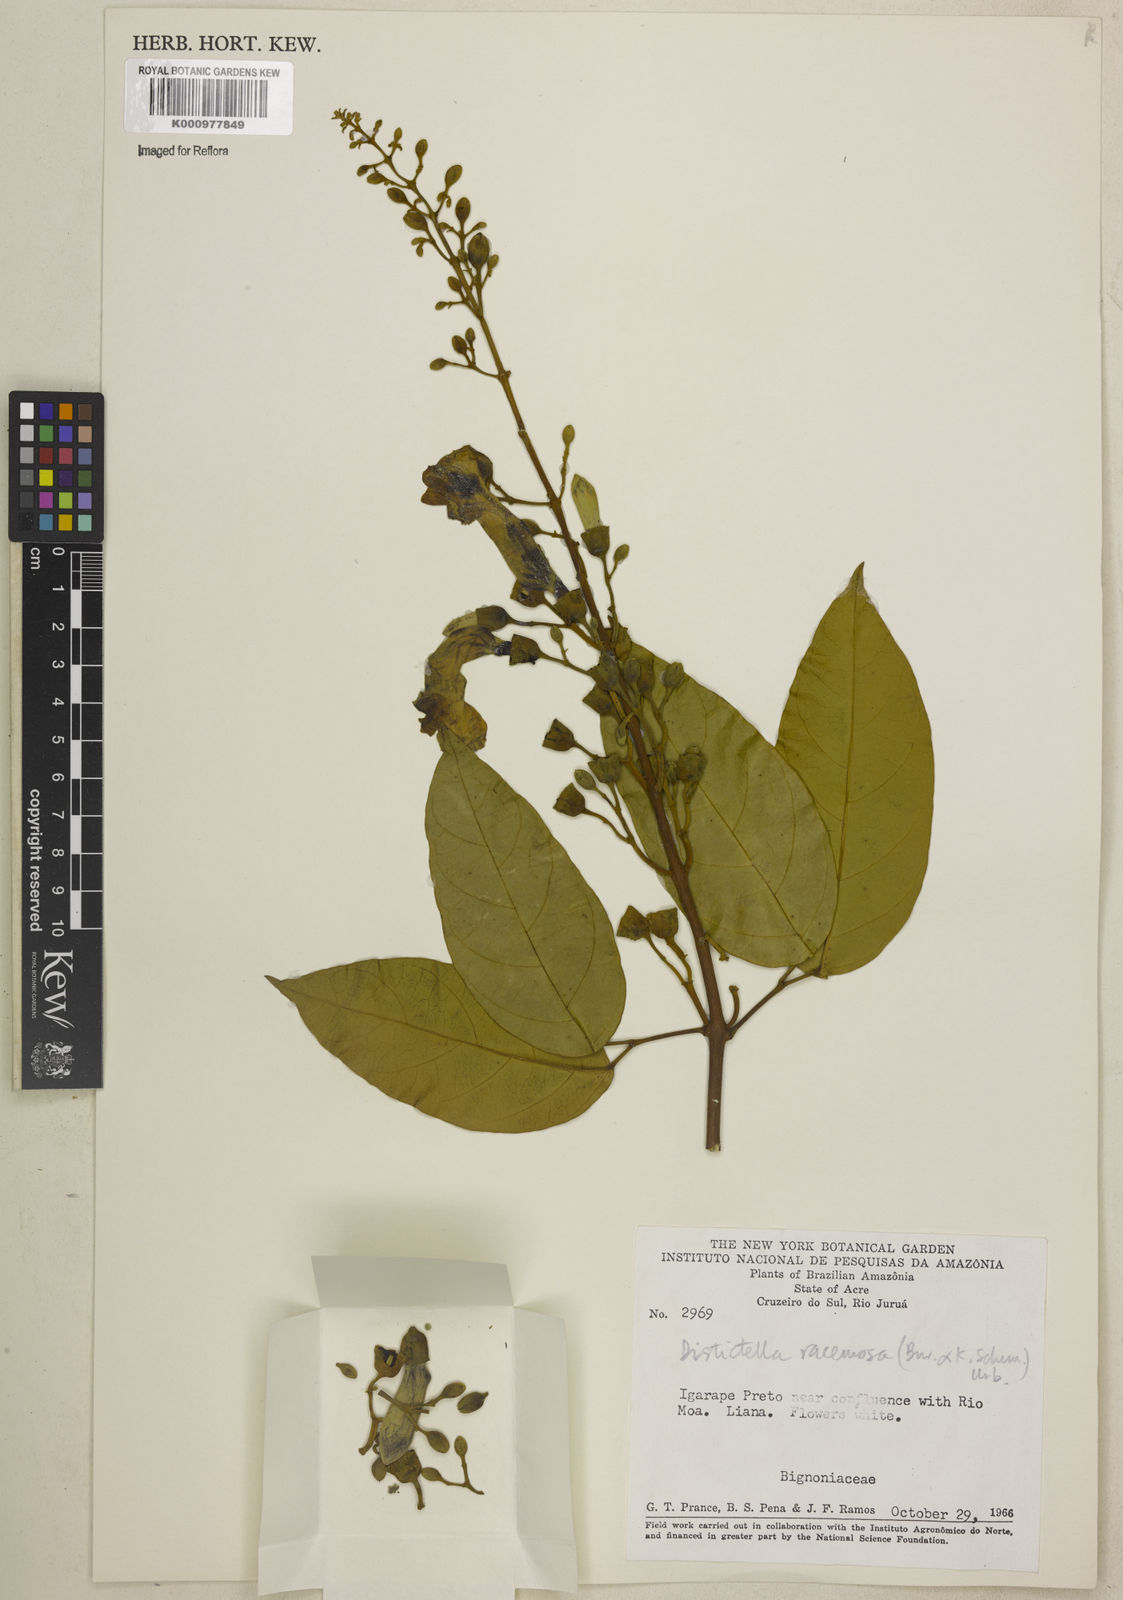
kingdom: Plantae
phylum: Tracheophyta
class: Magnoliopsida
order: Lamiales
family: Bignoniaceae
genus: Amphilophium
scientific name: Amphilophium racemosum
